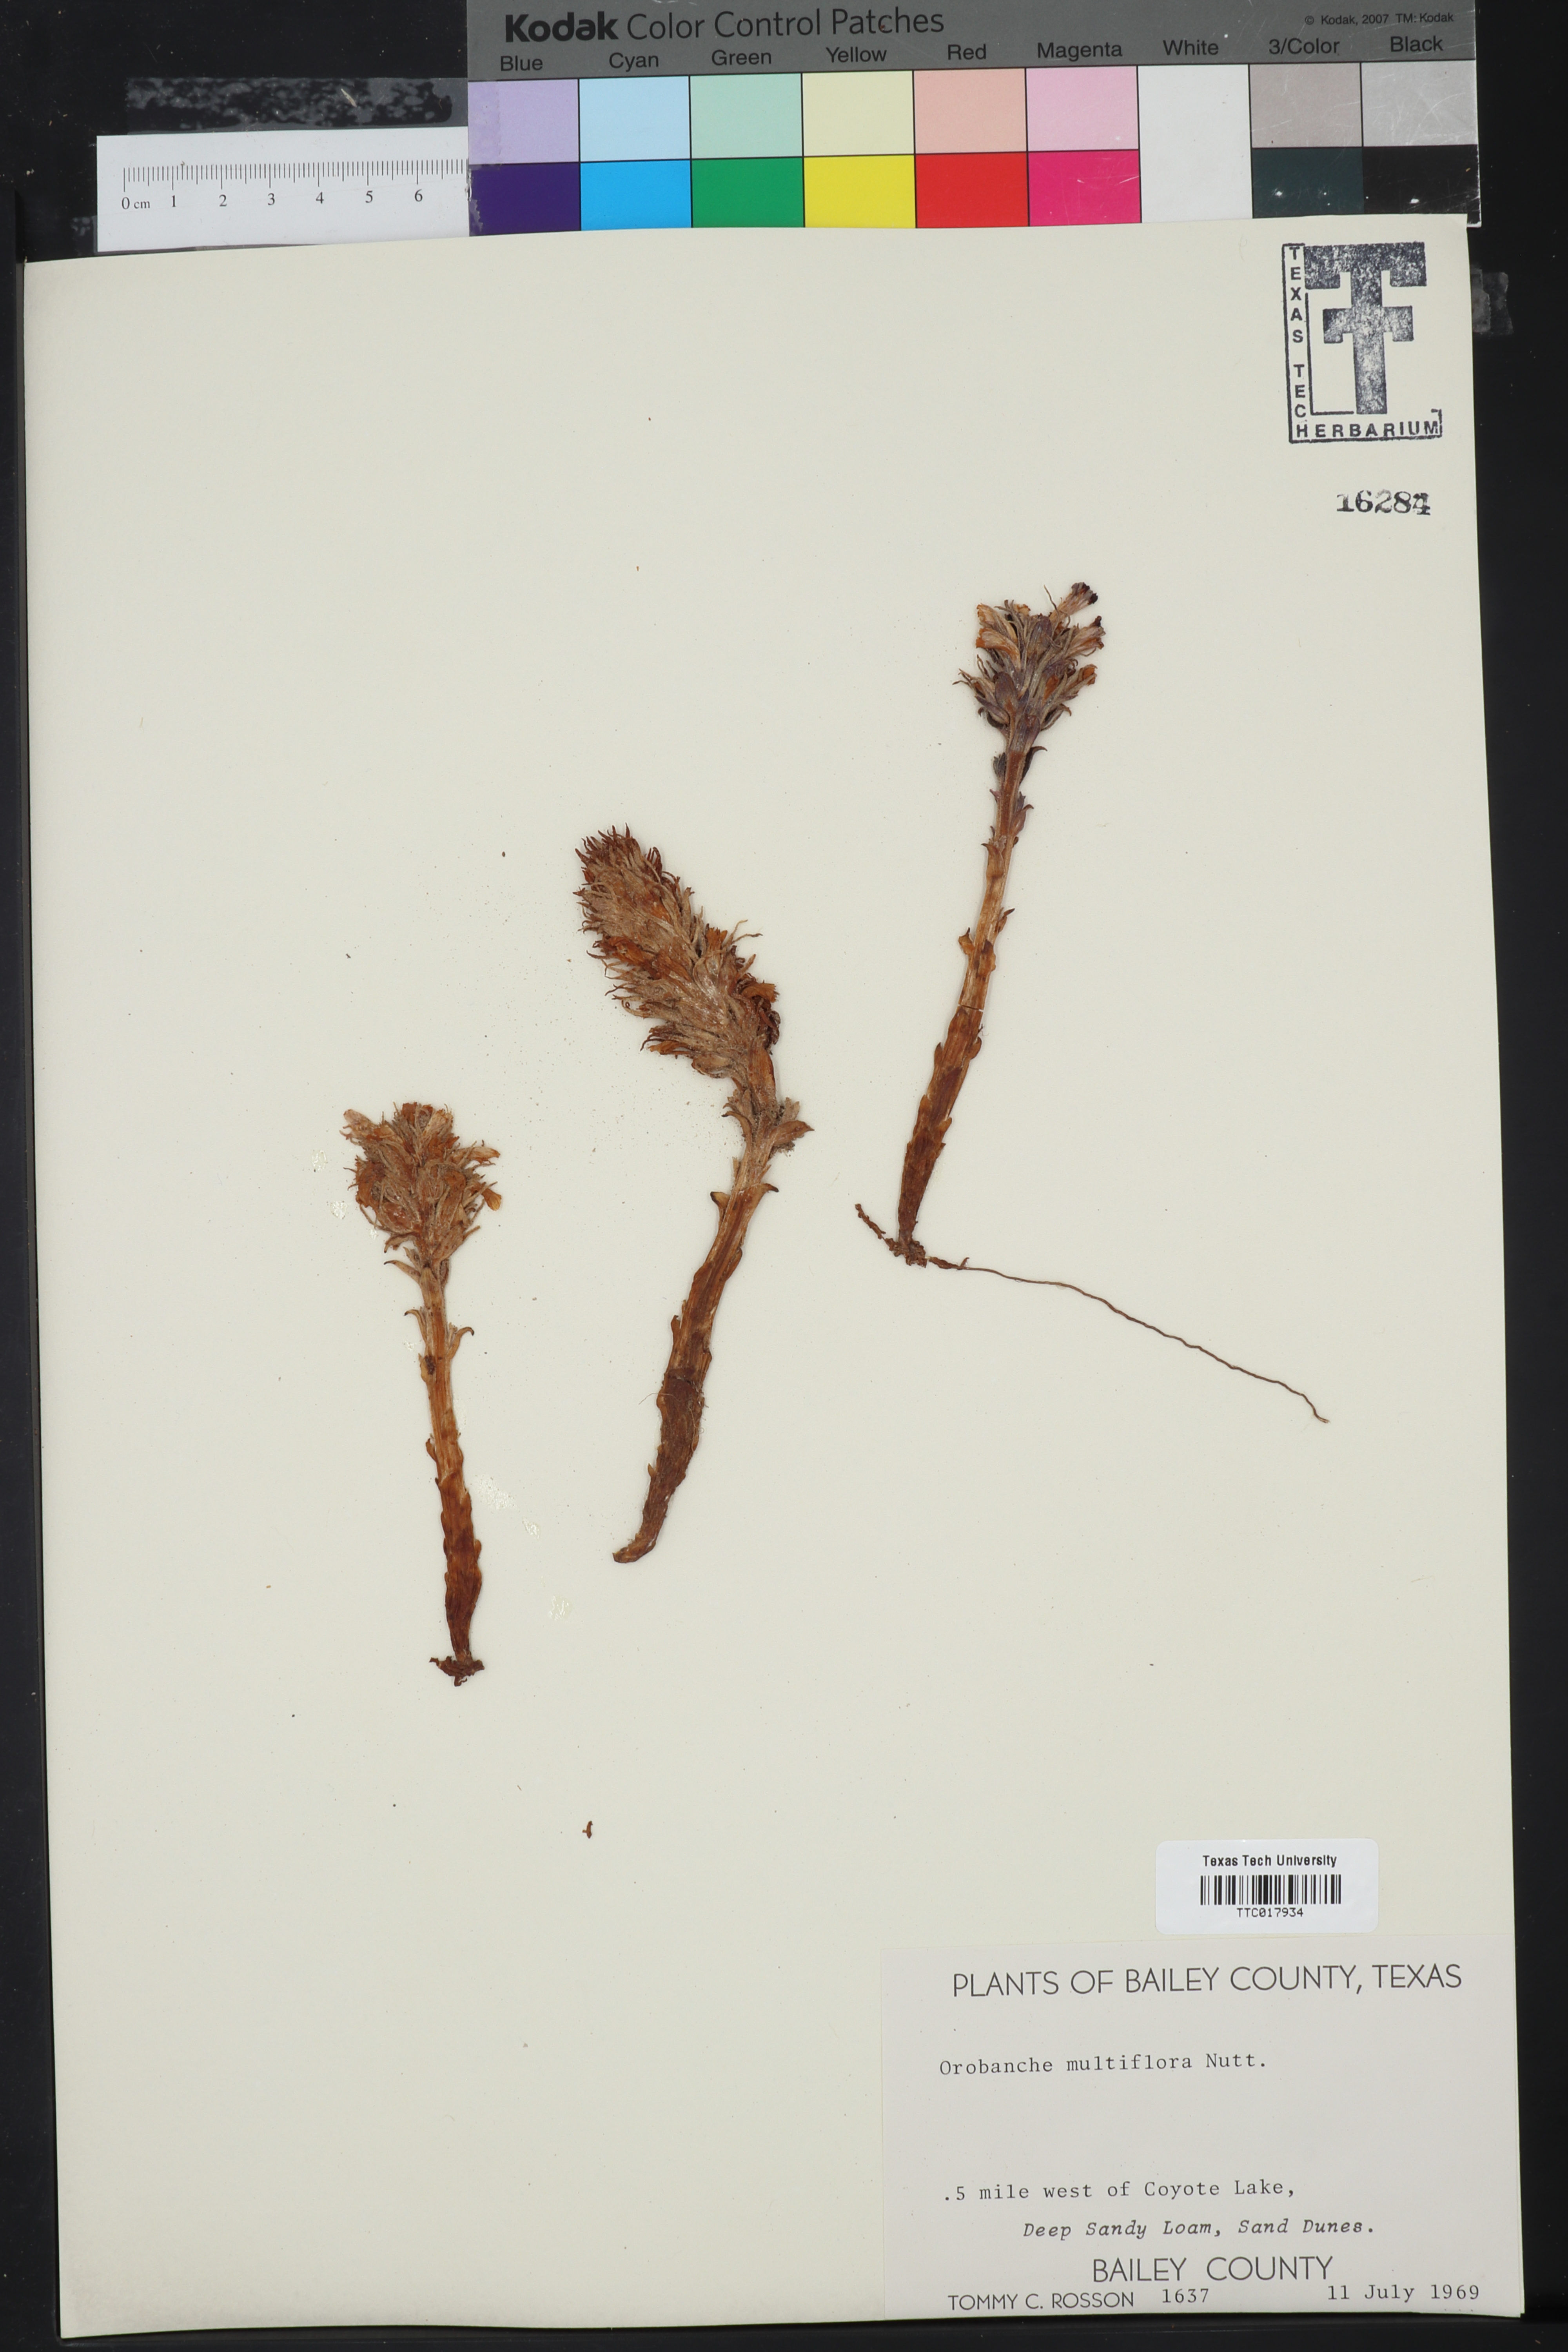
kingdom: Plantae
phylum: Tracheophyta
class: Magnoliopsida
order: Lamiales
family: Orobanchaceae
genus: Aphyllon
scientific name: Aphyllon multiflorum
